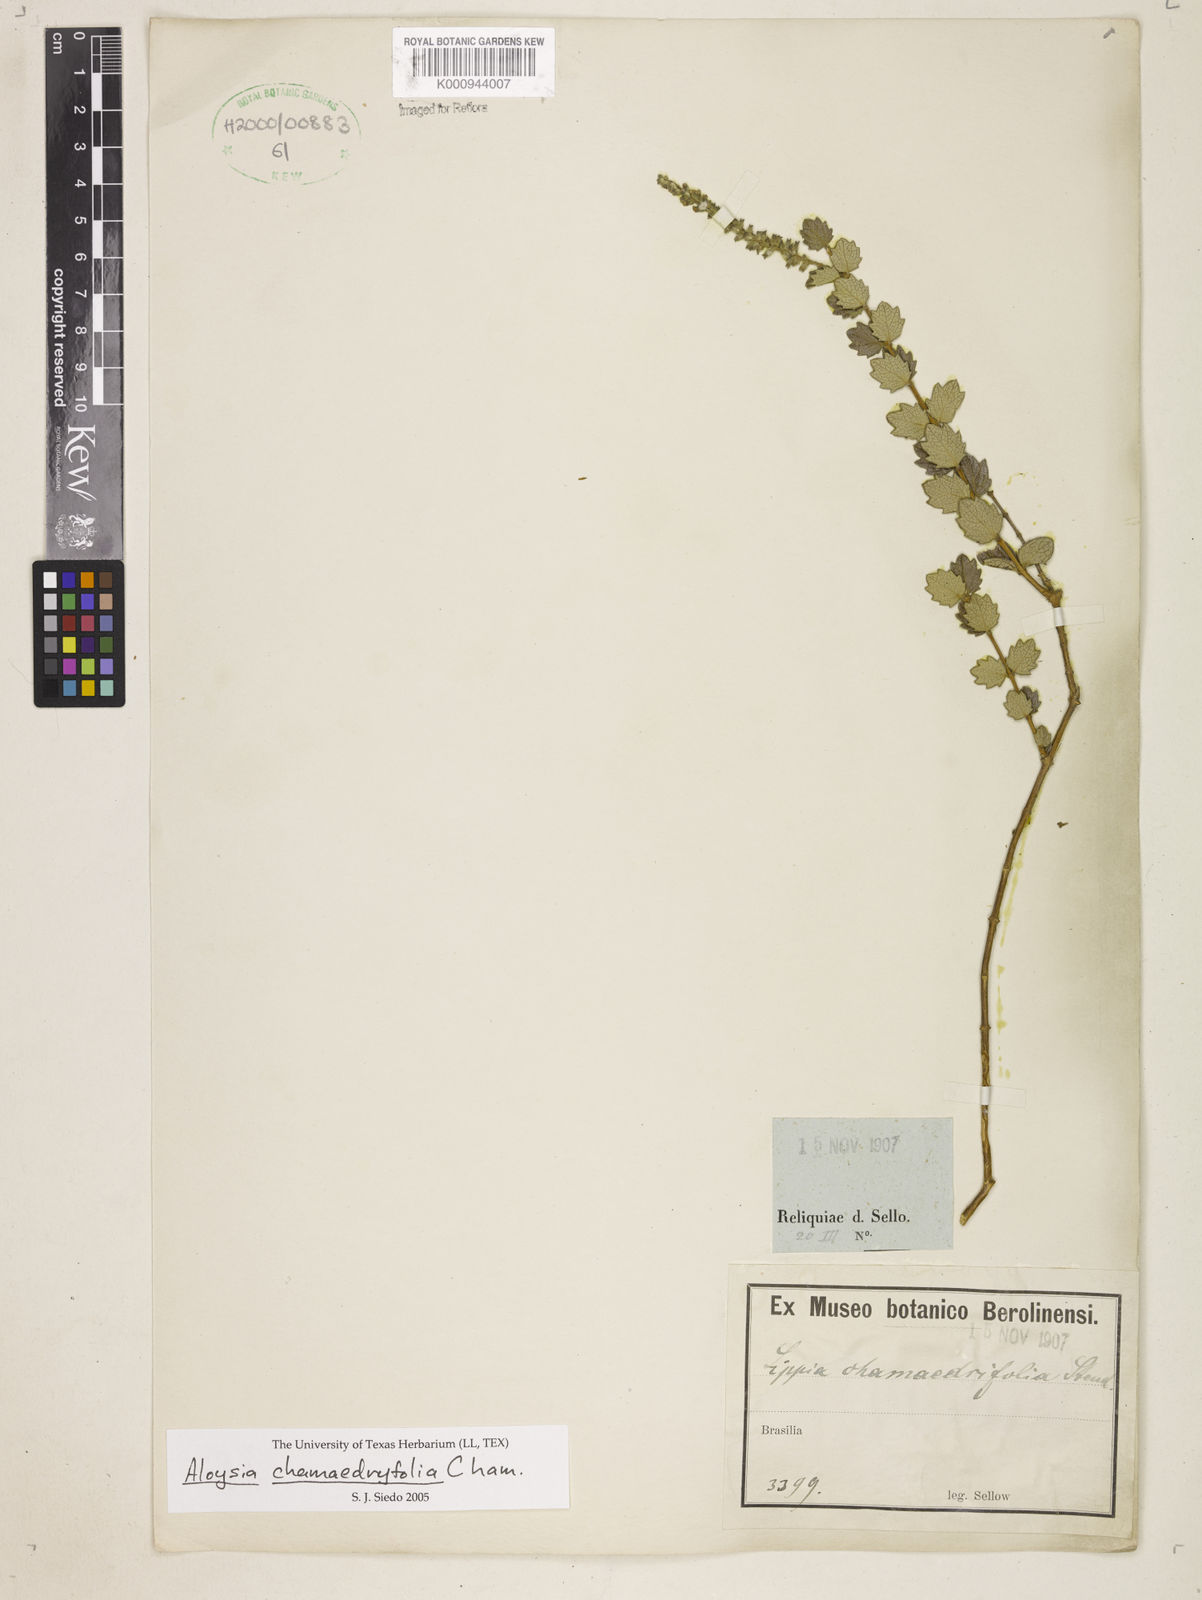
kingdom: Plantae
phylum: Tracheophyta
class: Magnoliopsida
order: Lamiales
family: Verbenaceae
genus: Aloysia
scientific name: Aloysia
